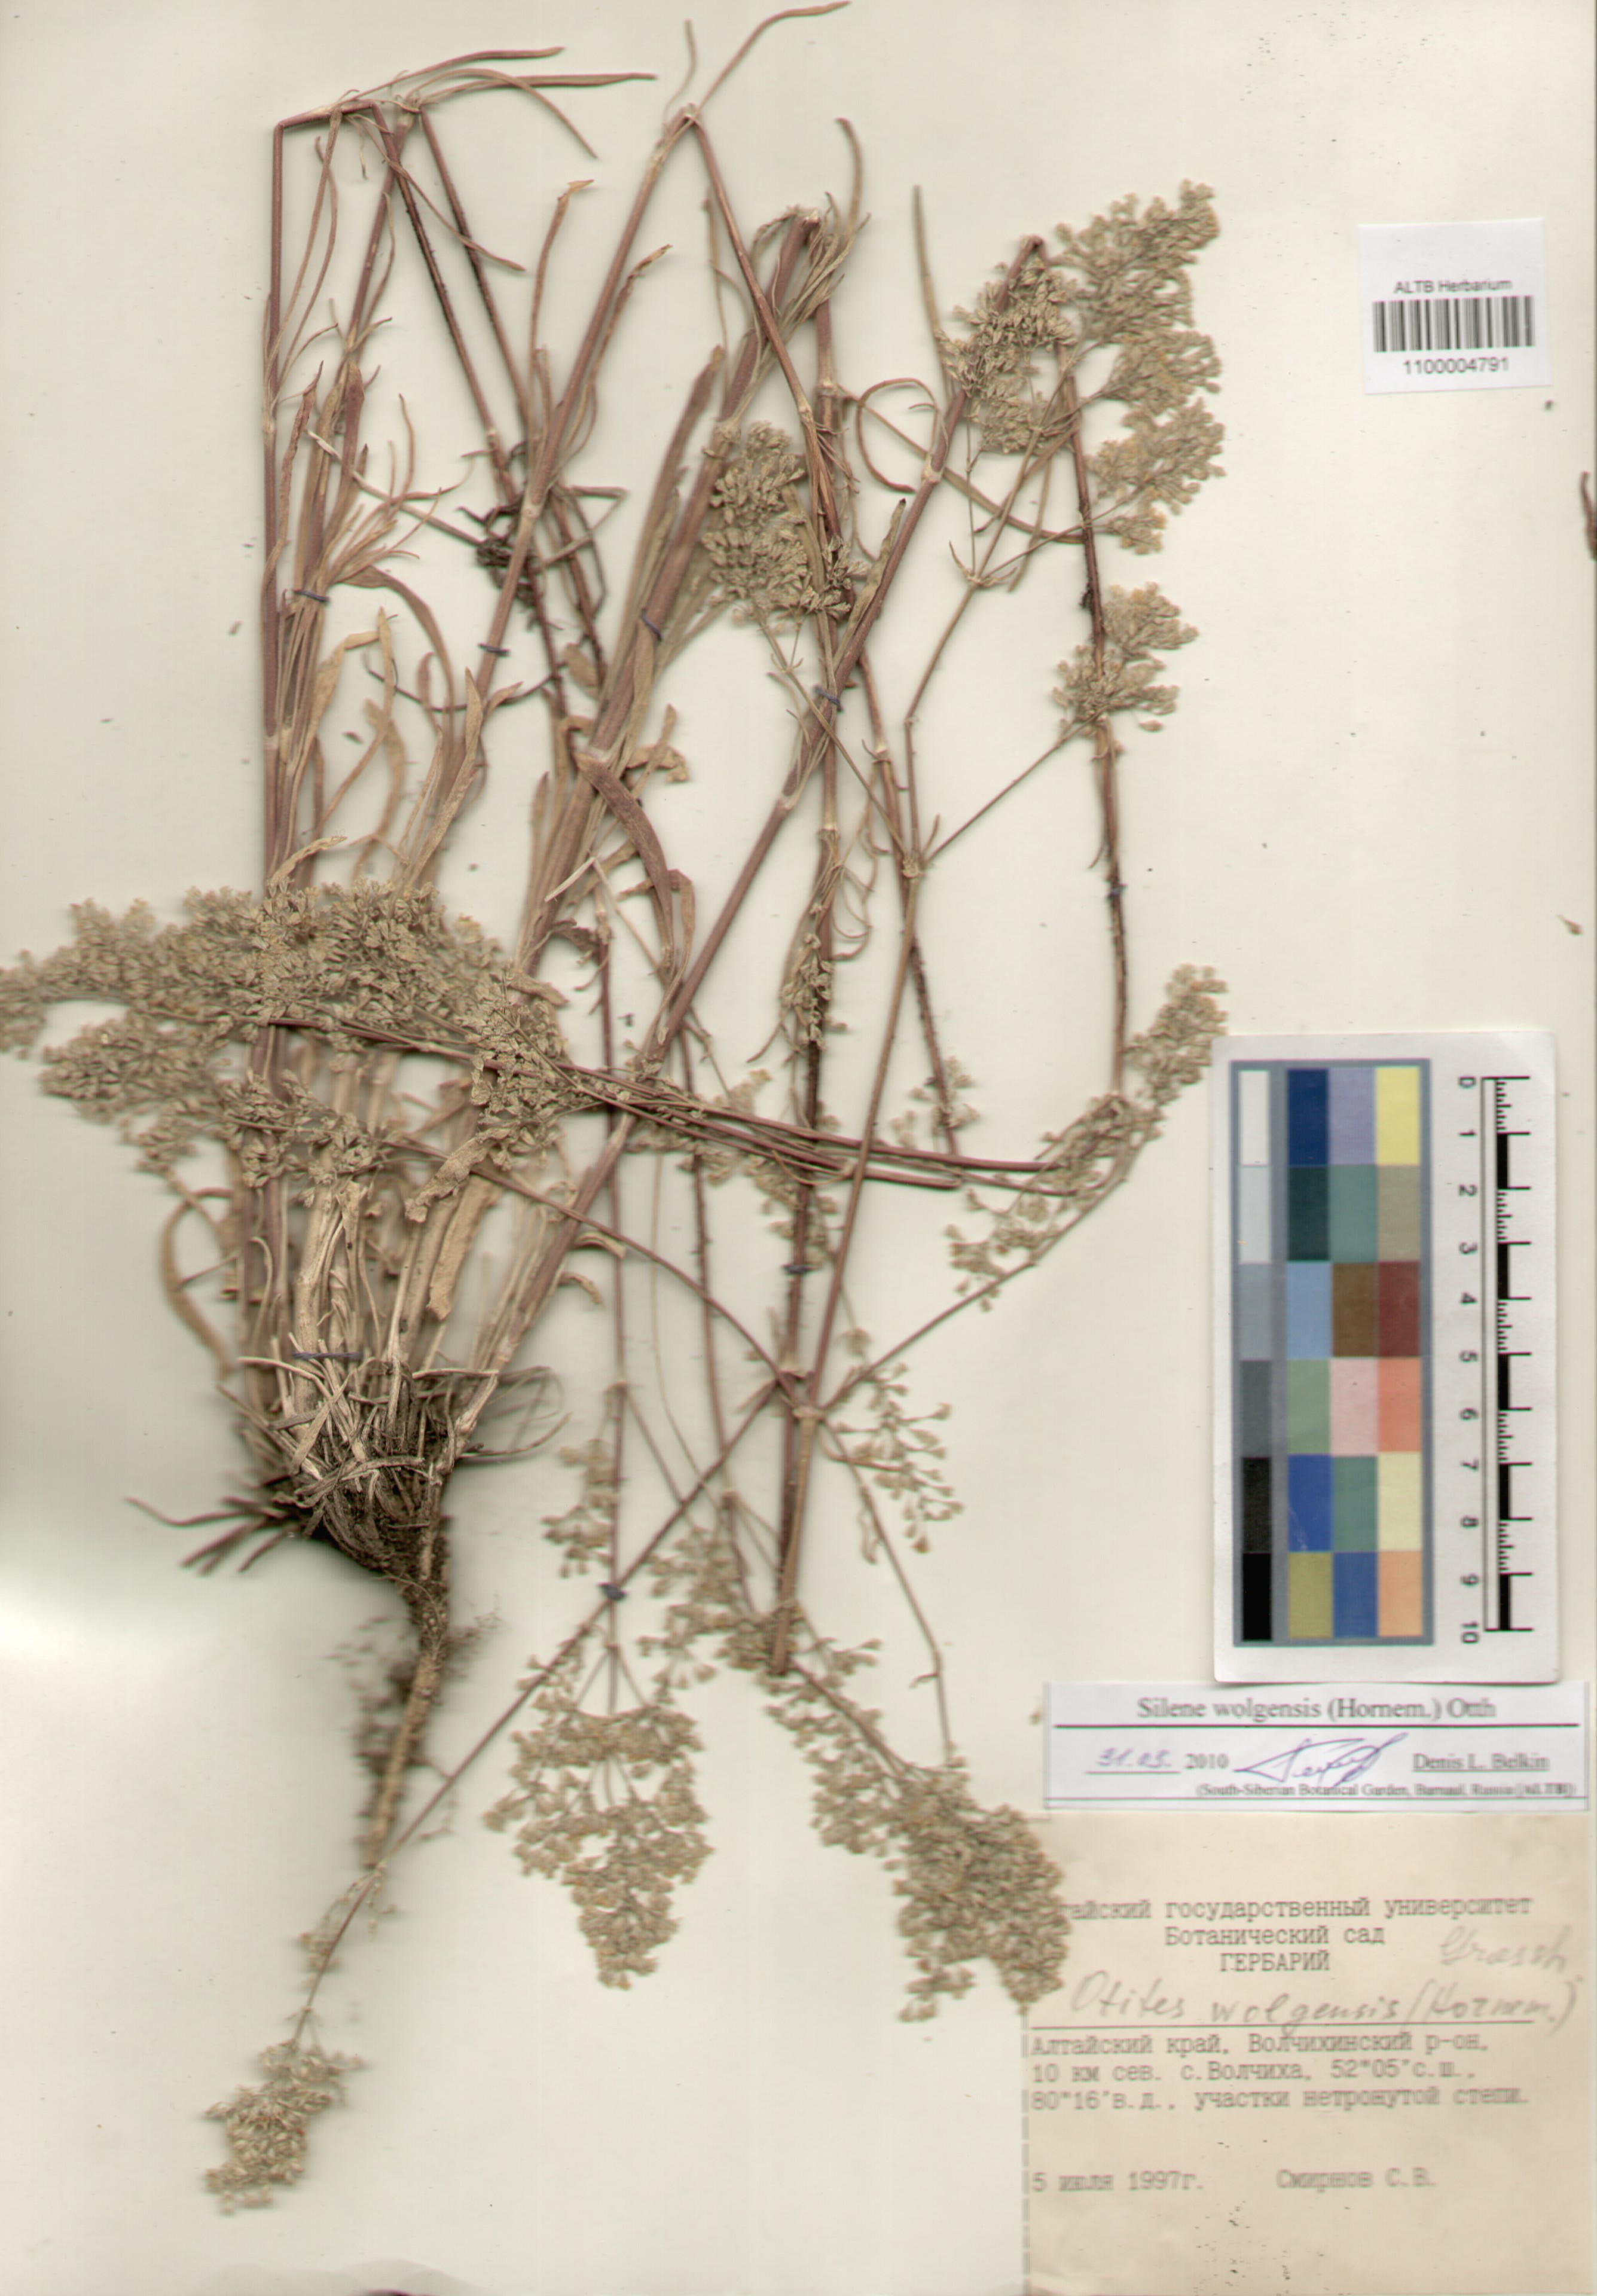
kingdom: Plantae
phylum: Tracheophyta
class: Magnoliopsida
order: Caryophyllales
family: Caryophyllaceae
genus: Silene
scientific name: Silene wolgensis
